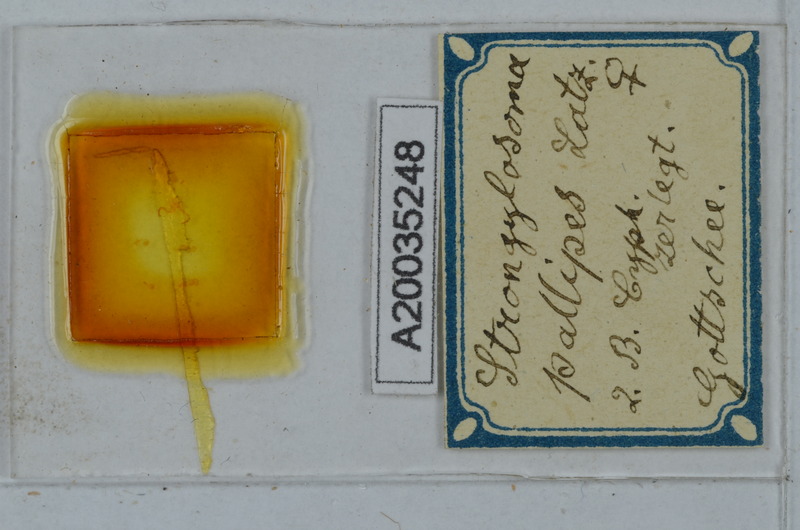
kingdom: Animalia
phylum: Arthropoda
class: Diplopoda
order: Polydesmida
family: Paradoxosomatidae
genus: Strongylosoma
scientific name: Strongylosoma stigmatosus
